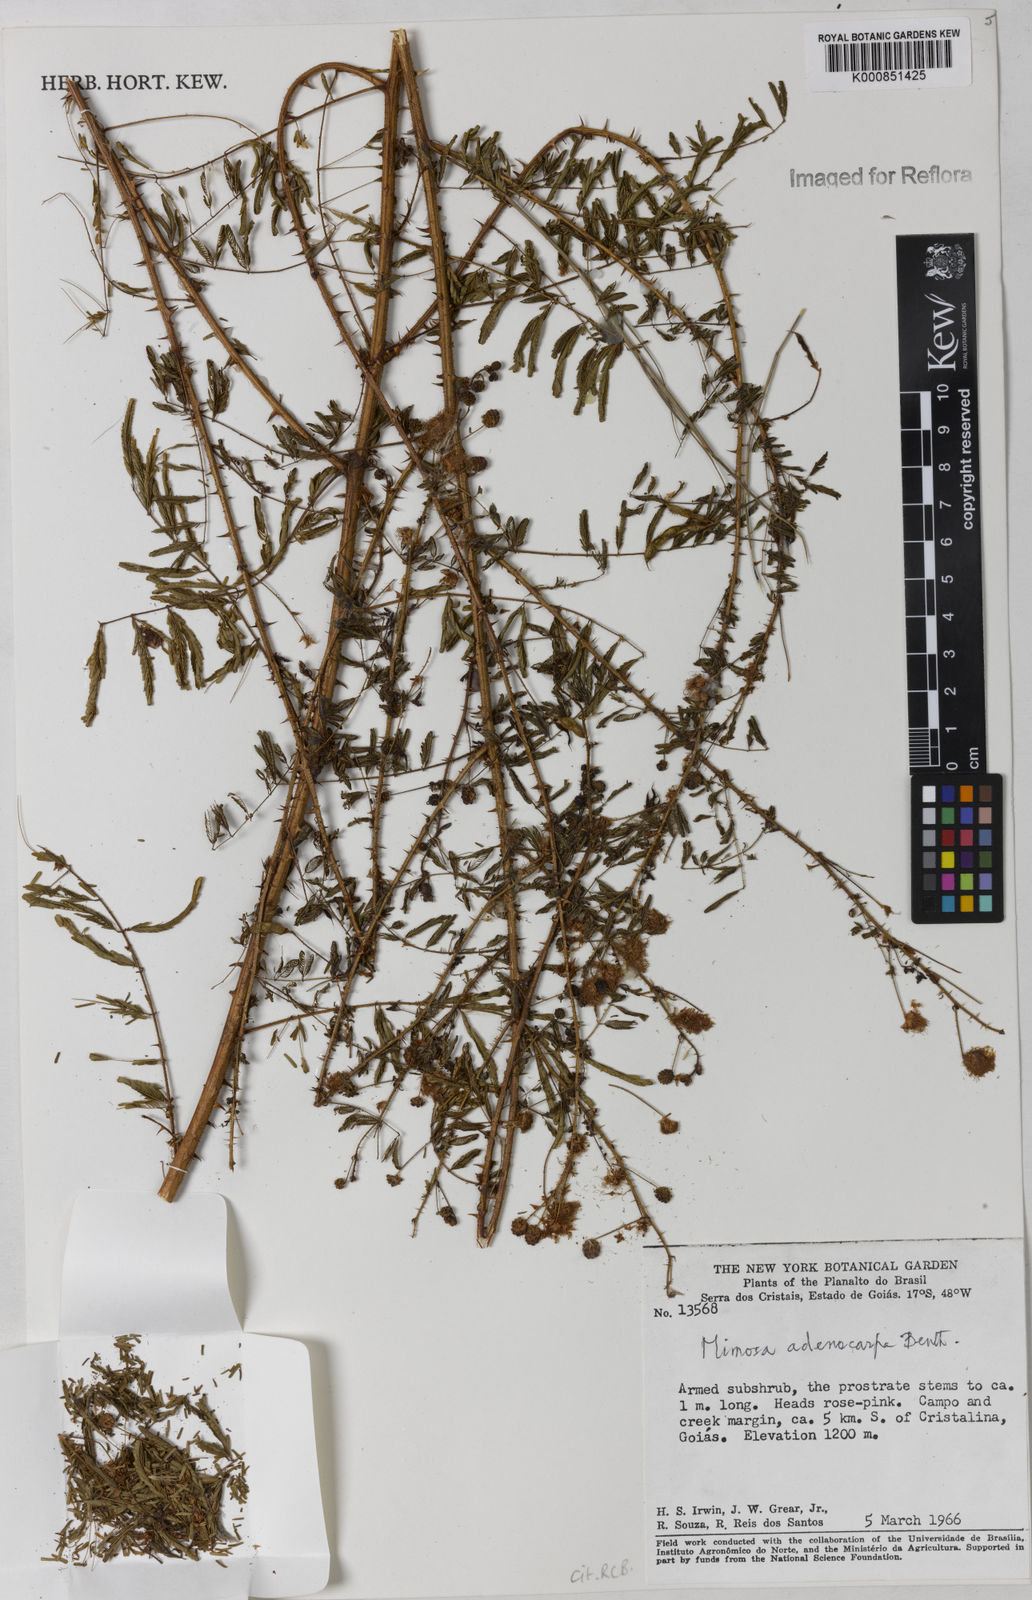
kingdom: Plantae
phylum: Tracheophyta
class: Magnoliopsida
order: Fabales
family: Fabaceae
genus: Mimosa
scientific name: Mimosa adenocarpa
